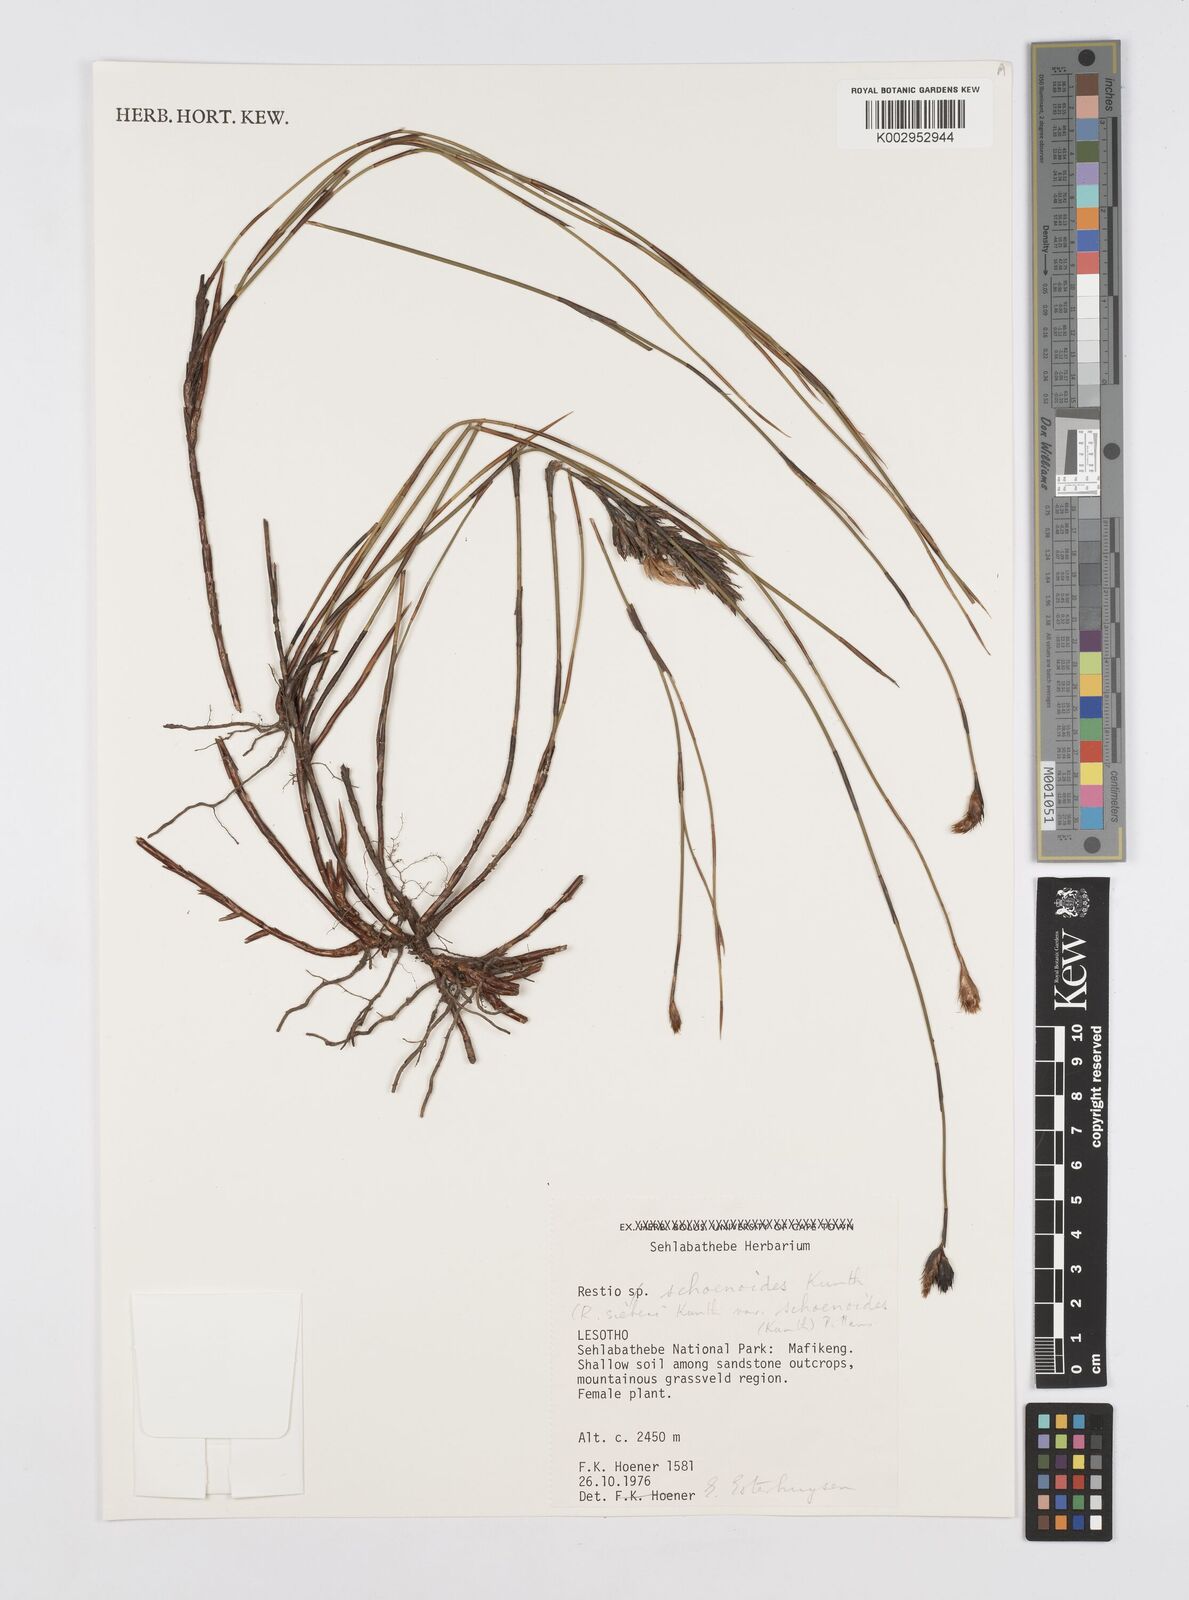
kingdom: Plantae
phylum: Tracheophyta
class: Liliopsida
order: Poales
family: Restionaceae
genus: Restio
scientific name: Restio schoenoides
